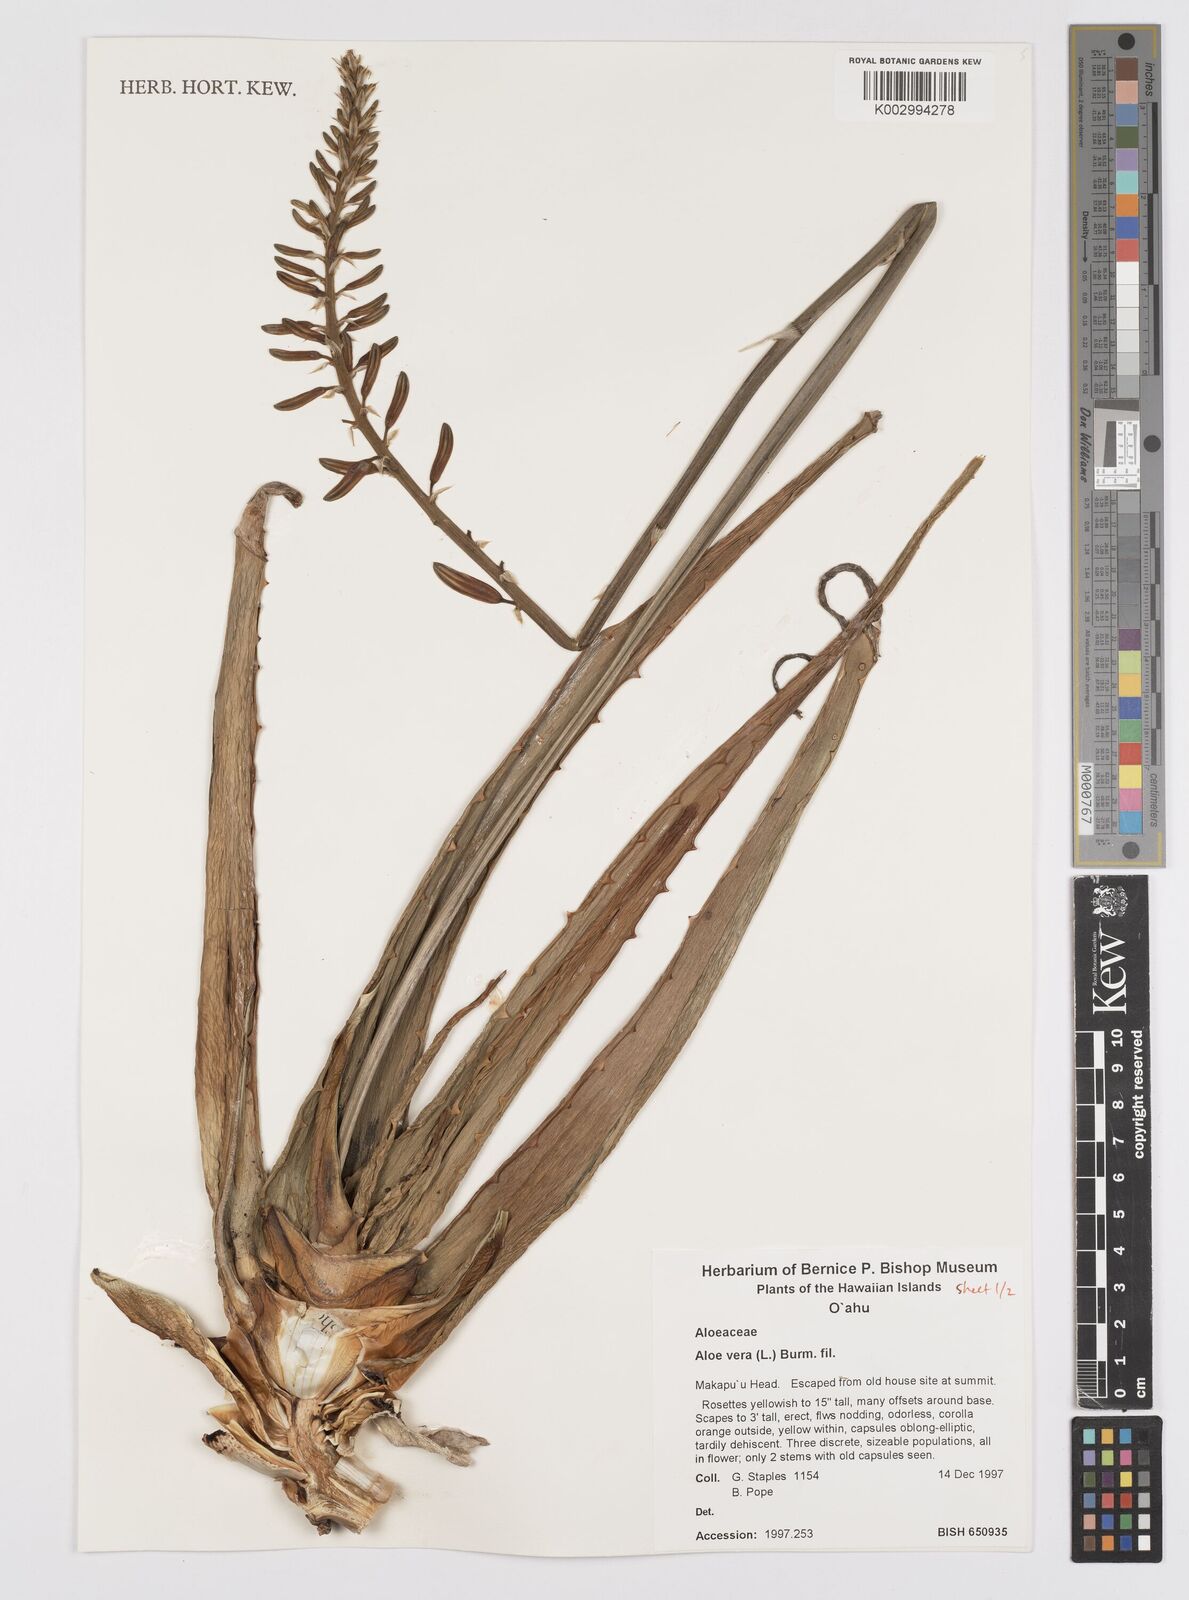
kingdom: Plantae
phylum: Tracheophyta
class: Liliopsida
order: Asparagales
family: Asphodelaceae
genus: Aloe
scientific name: Aloe vera
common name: Barbados aloe
